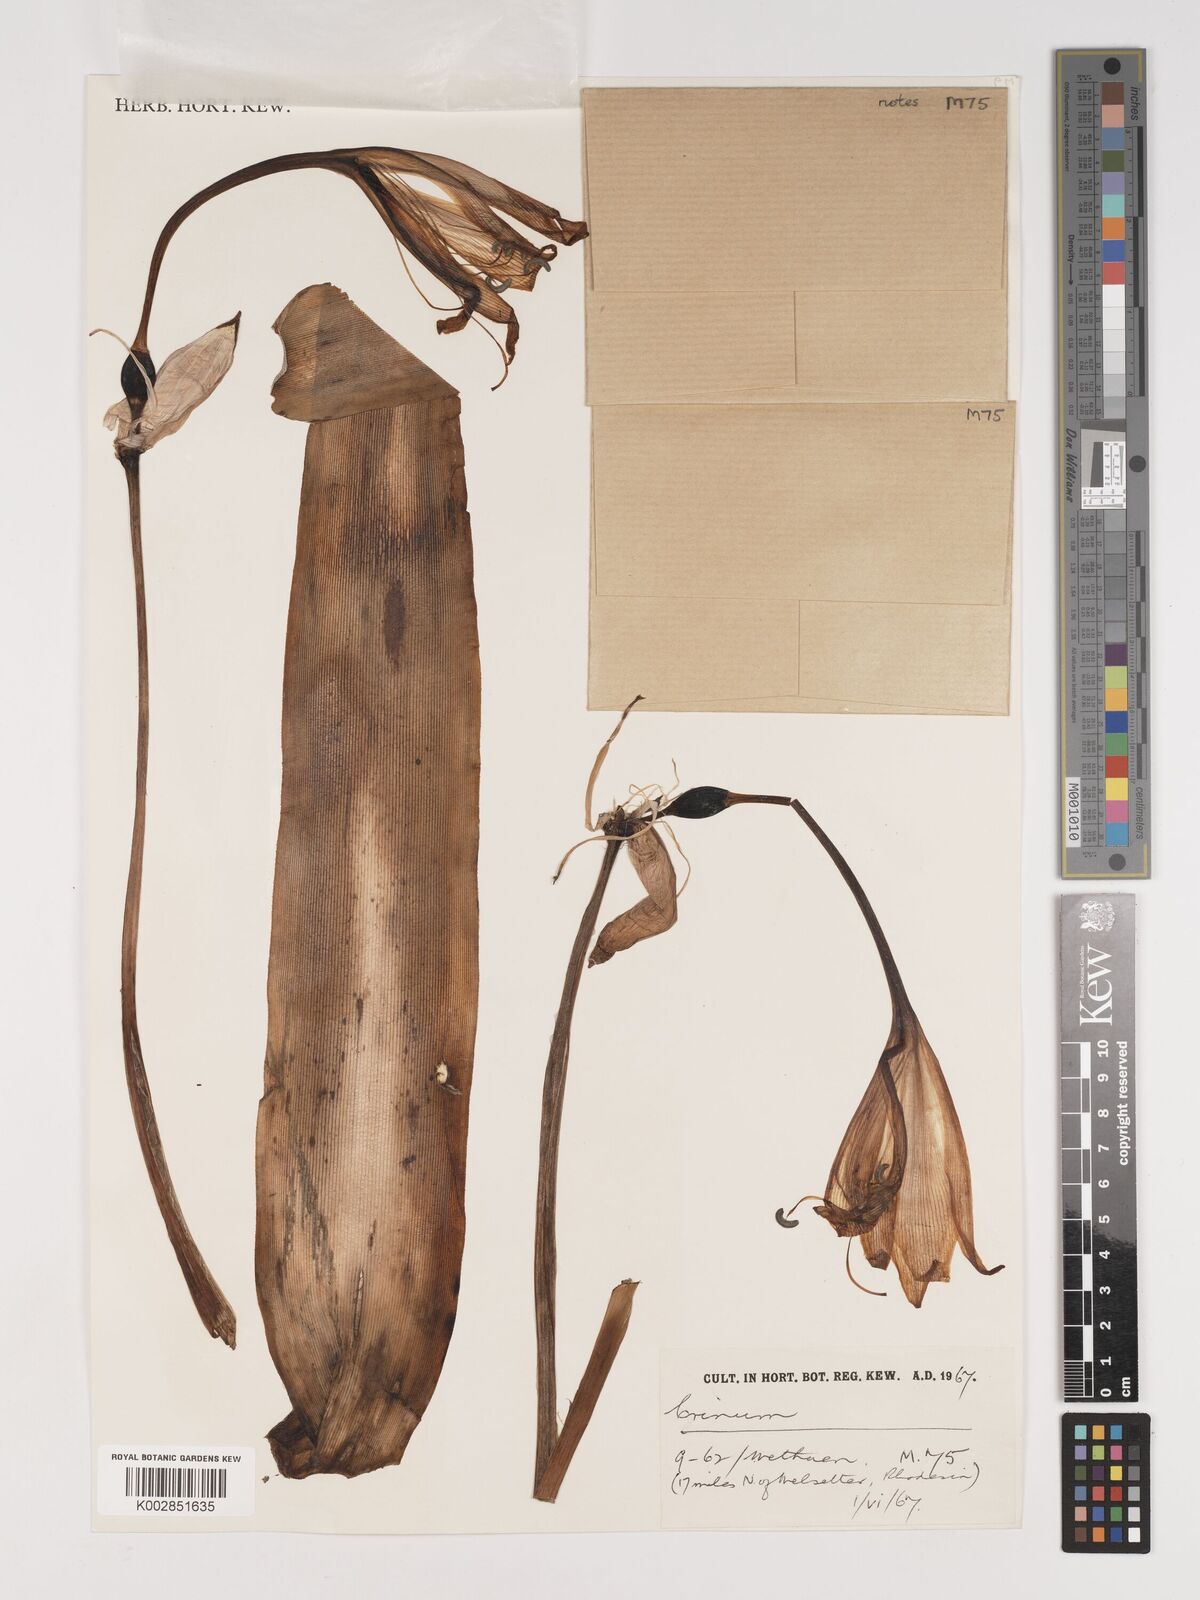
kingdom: Plantae
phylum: Tracheophyta
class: Liliopsida
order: Asparagales
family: Amaryllidaceae
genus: Crinum
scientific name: Crinum macowanii
